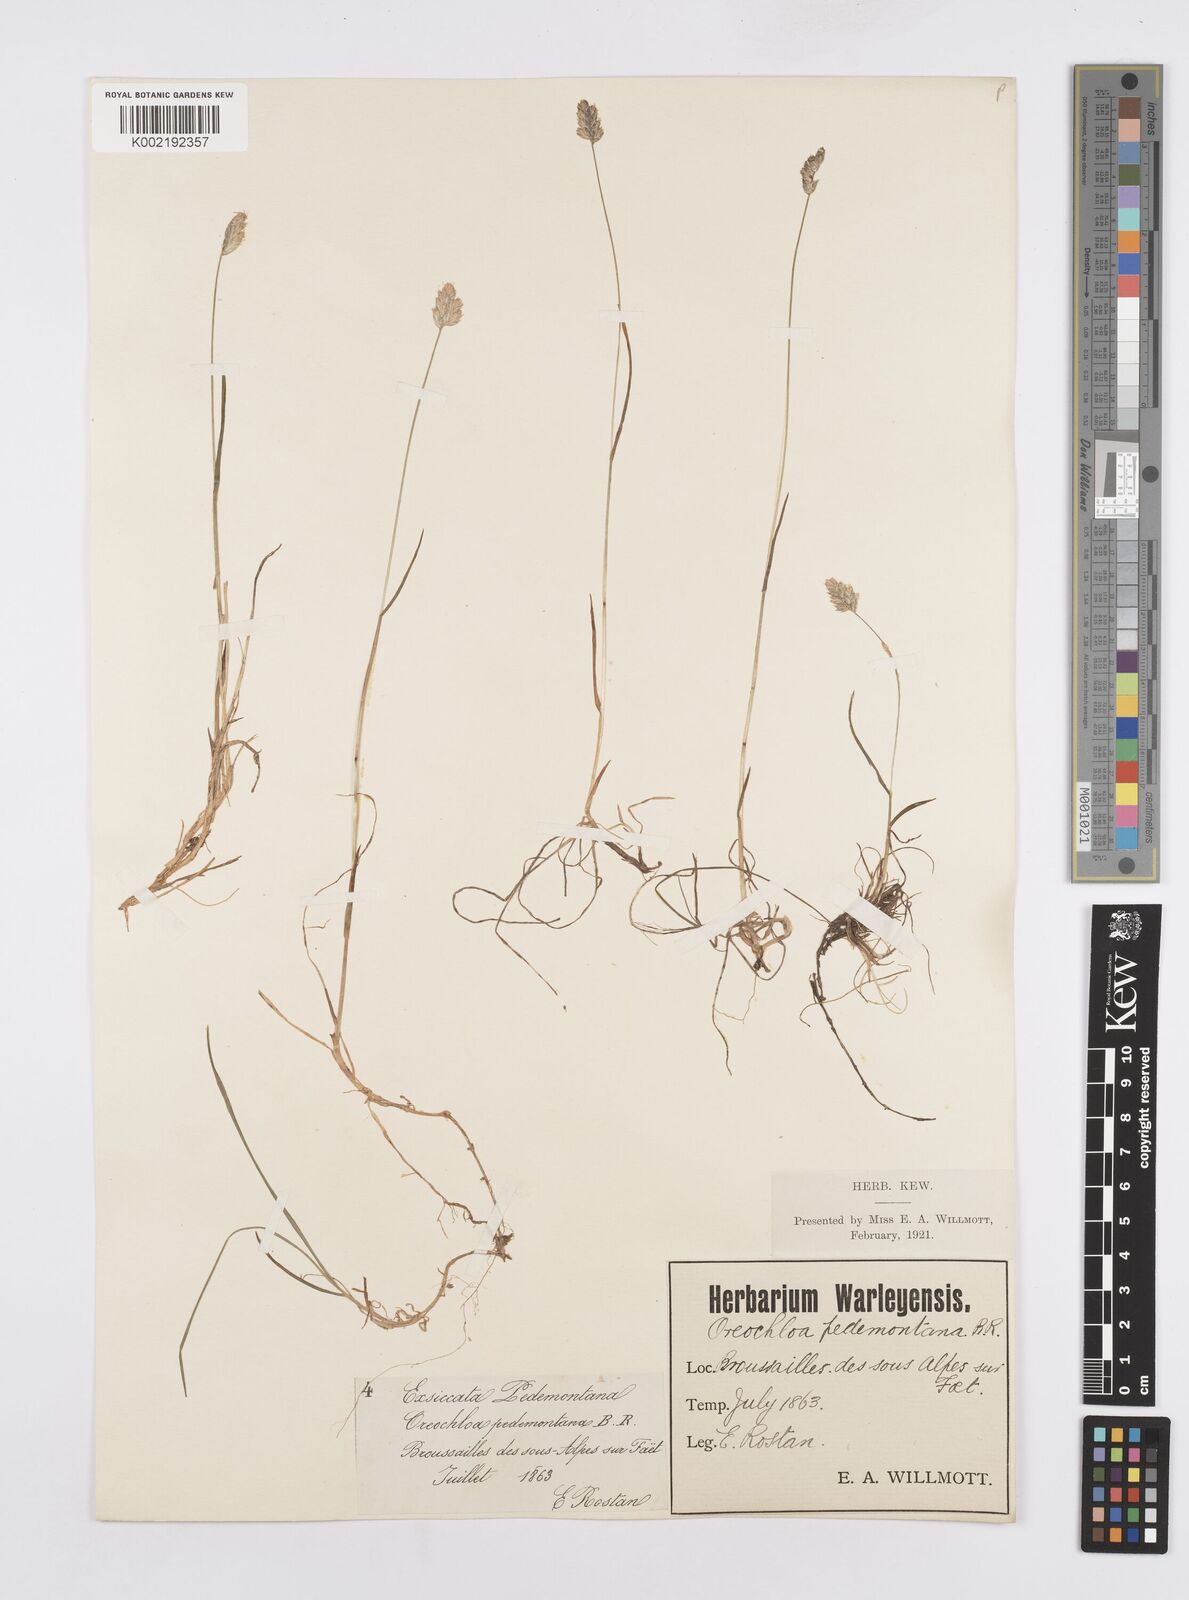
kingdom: Plantae
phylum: Tracheophyta
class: Liliopsida
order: Poales
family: Poaceae
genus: Oreochloa
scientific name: Oreochloa seslerioides
